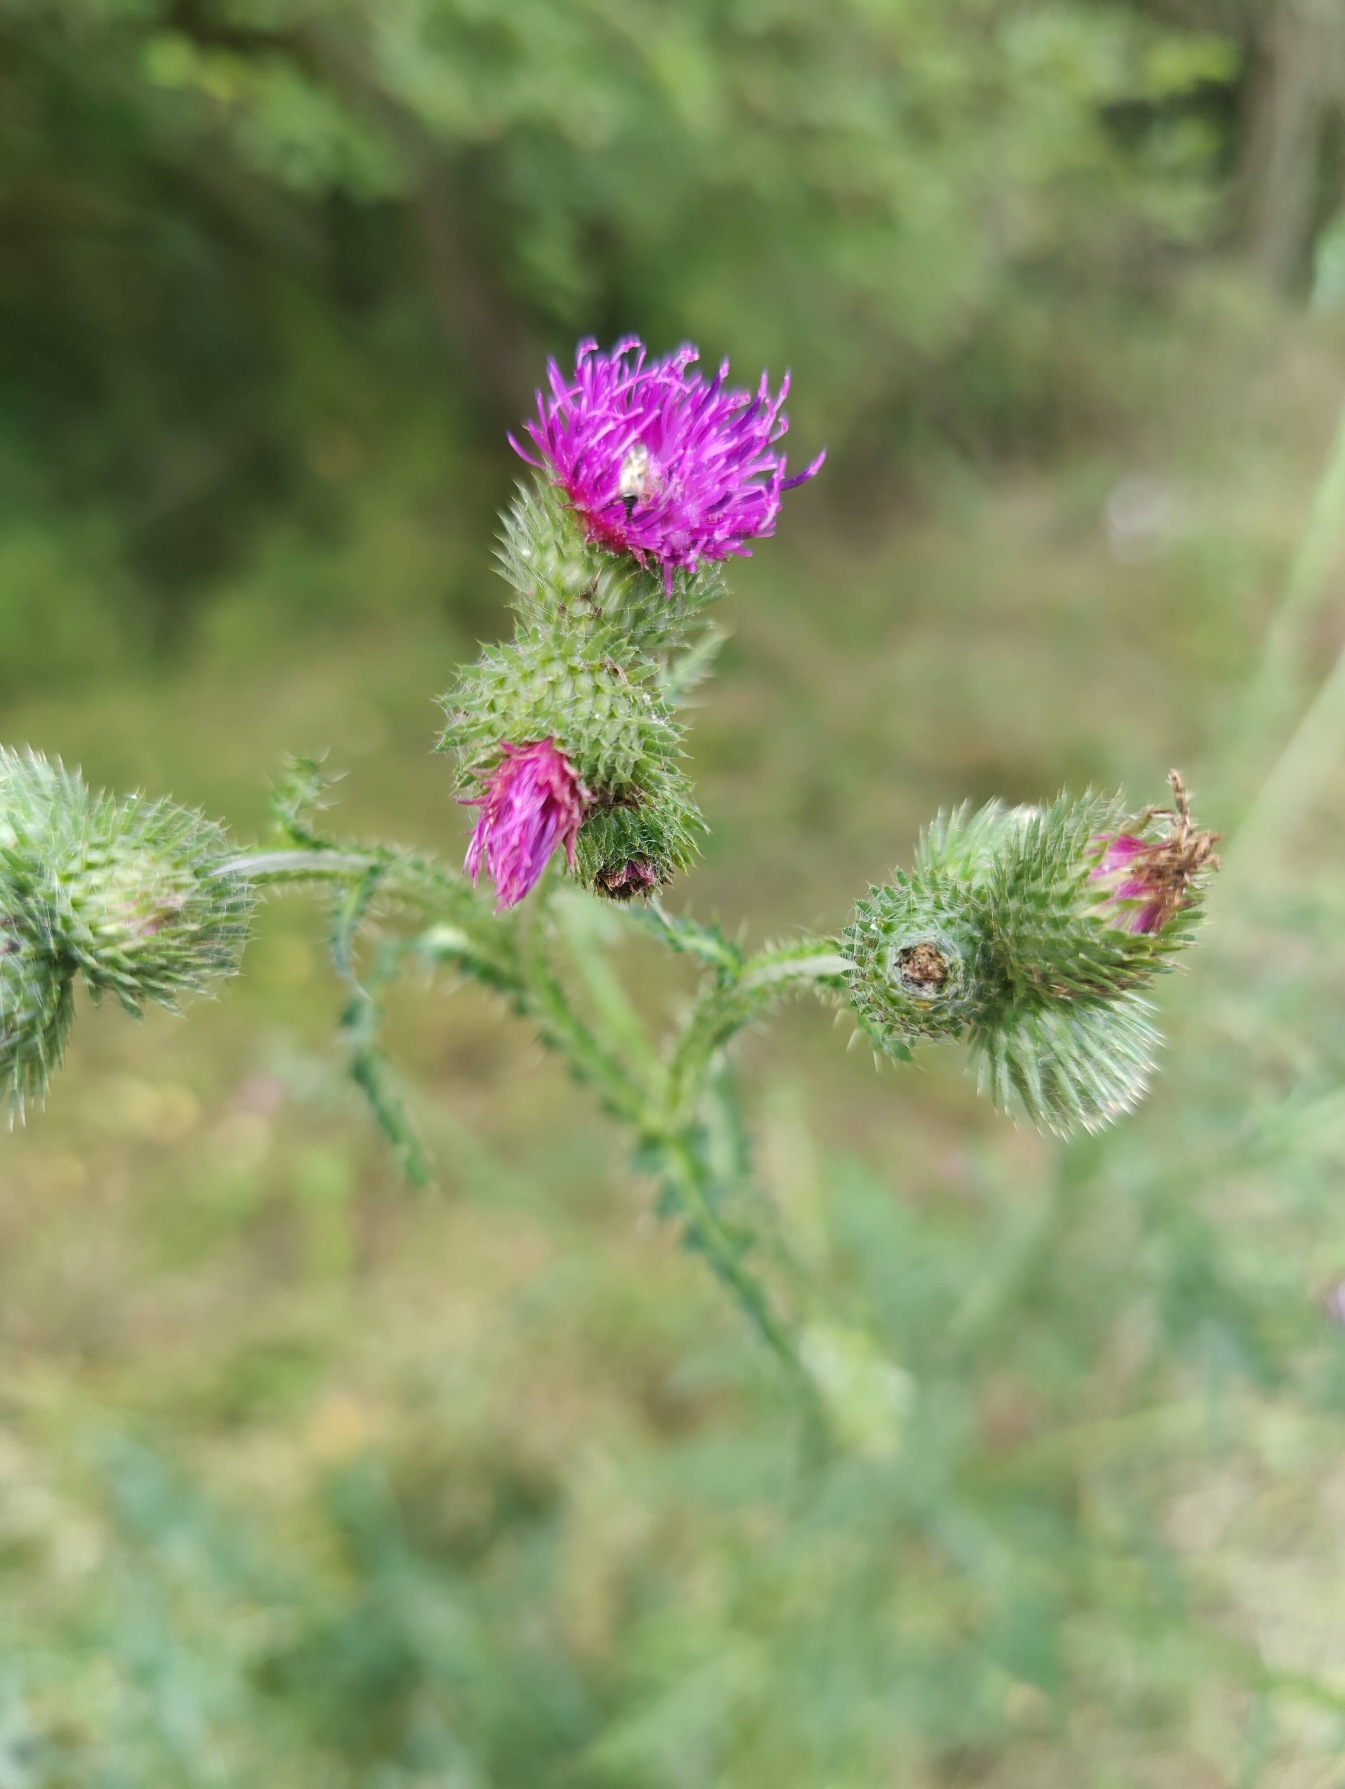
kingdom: Plantae
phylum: Tracheophyta
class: Magnoliopsida
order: Asterales
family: Asteraceae
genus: Carduus
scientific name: Carduus crispus
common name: Kruset tidsel
